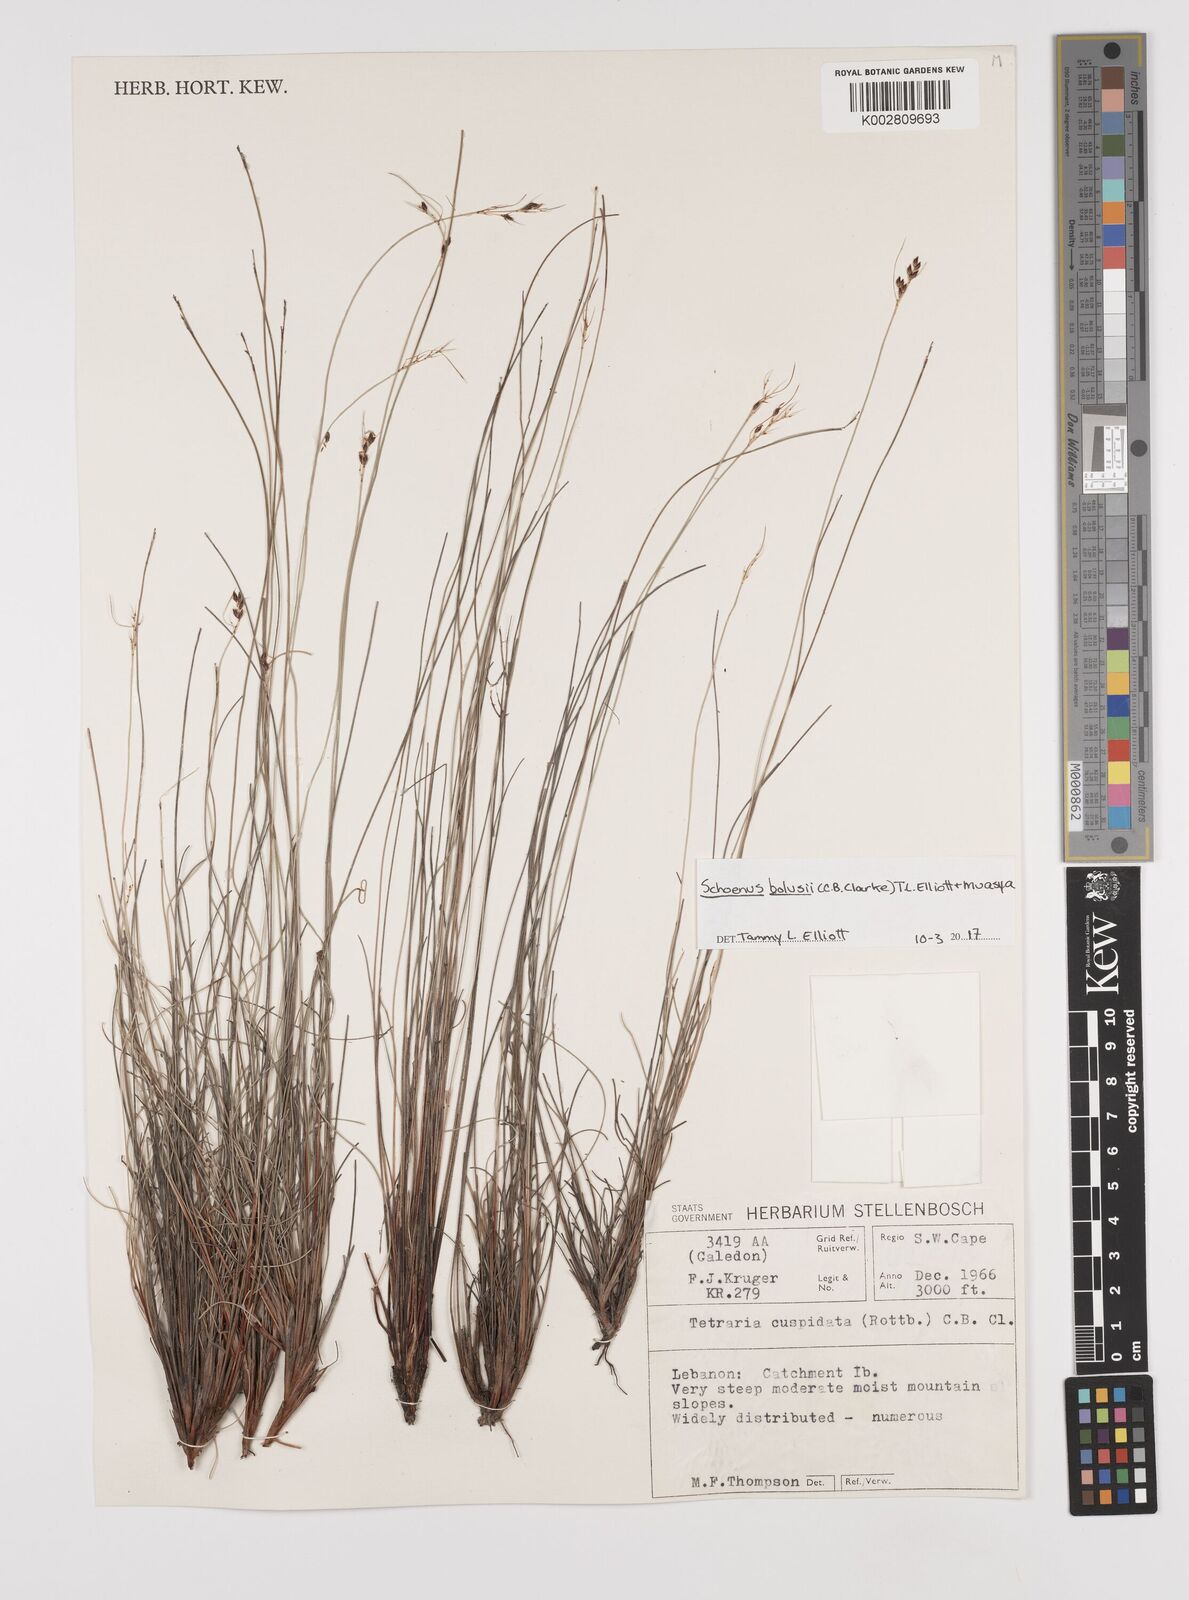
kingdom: Plantae
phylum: Tracheophyta
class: Liliopsida
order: Poales
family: Cyperaceae
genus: Schoenus
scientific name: Schoenus bolusii
